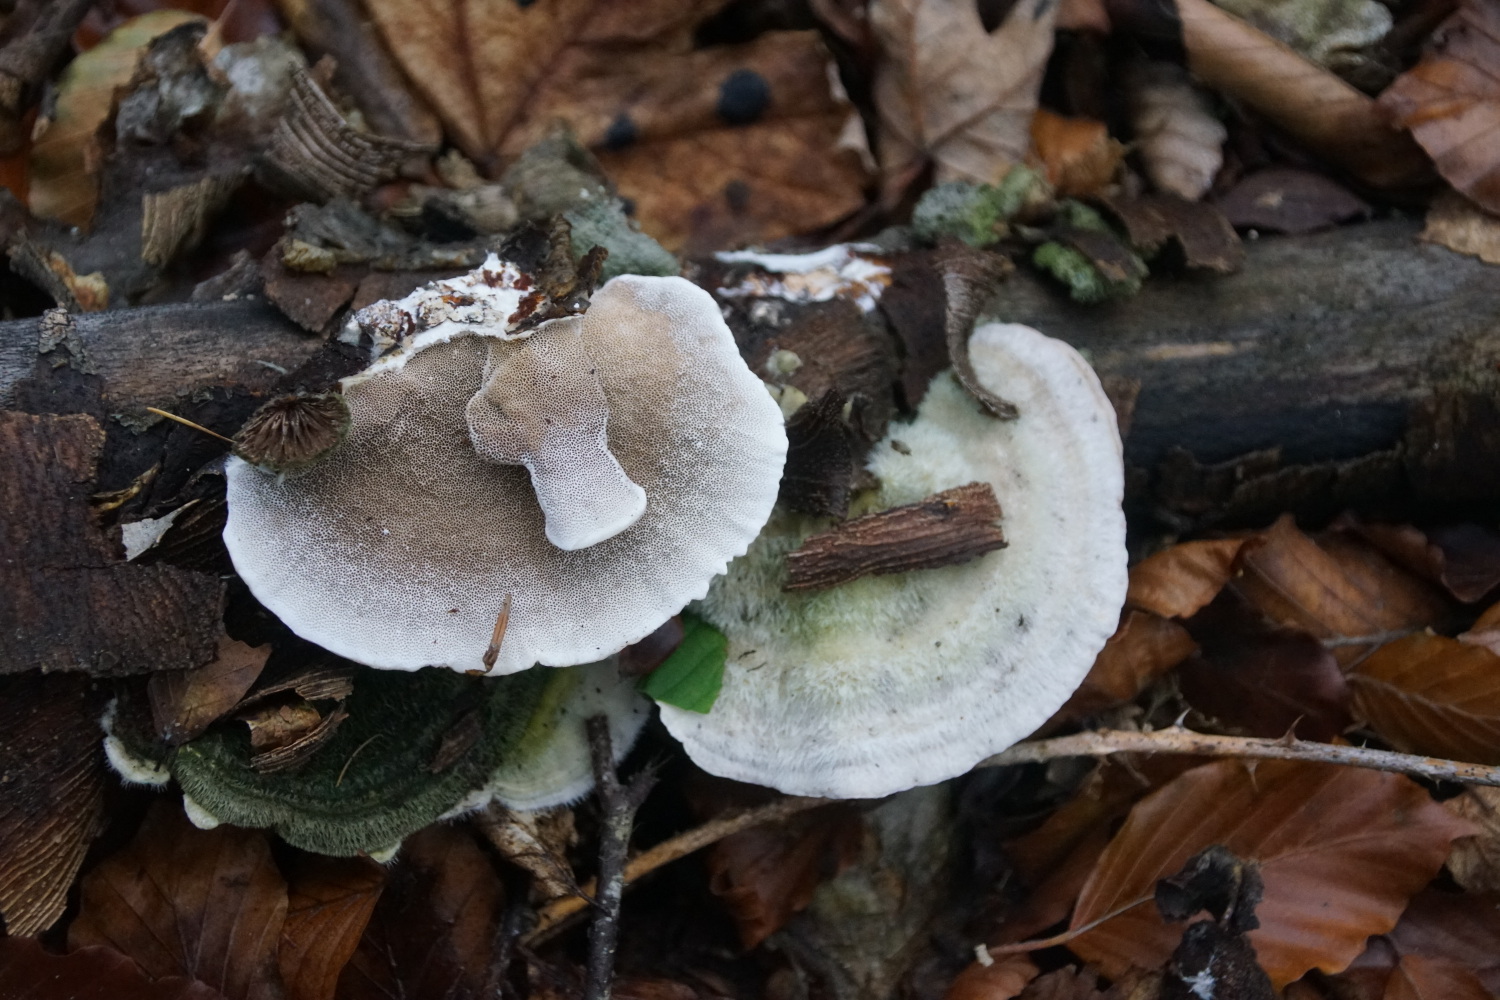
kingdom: Fungi
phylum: Basidiomycota
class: Agaricomycetes
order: Polyporales
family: Polyporaceae
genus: Trametes
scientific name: Trametes hirsuta
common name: håret læderporesvamp
